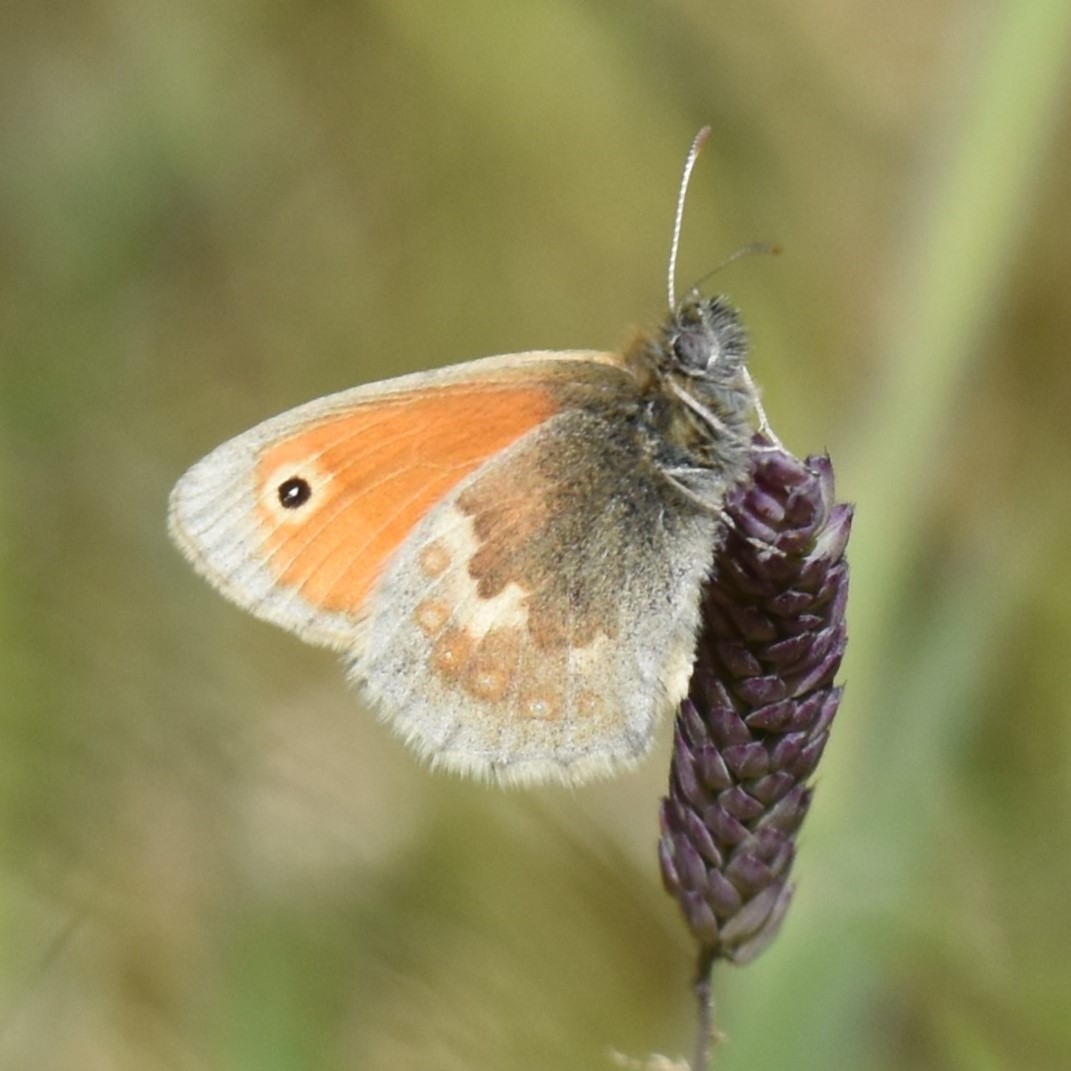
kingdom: Animalia
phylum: Arthropoda
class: Insecta
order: Lepidoptera
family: Nymphalidae
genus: Coenonympha
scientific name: Coenonympha pamphilus
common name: Okkergul randøje
